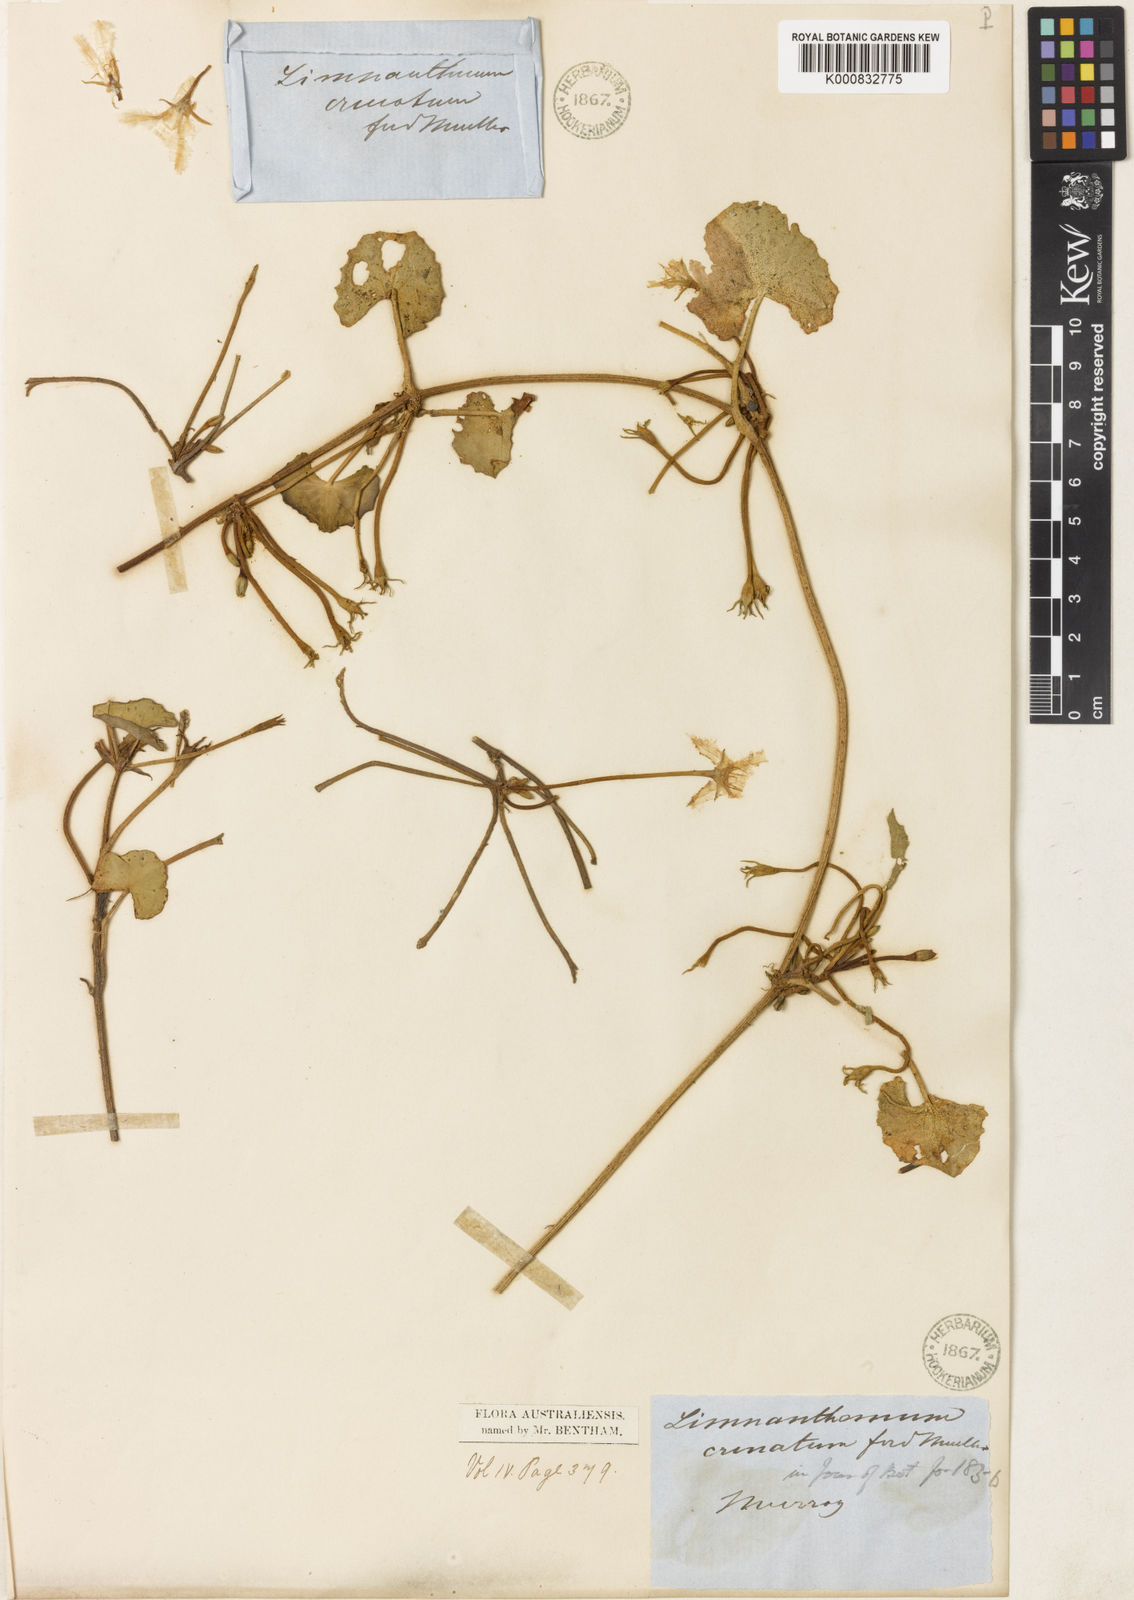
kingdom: Plantae
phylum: Tracheophyta
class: Magnoliopsida
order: Asterales
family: Menyanthaceae
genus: Nymphoides
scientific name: Nymphoides crenata
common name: Wavy marshwort
